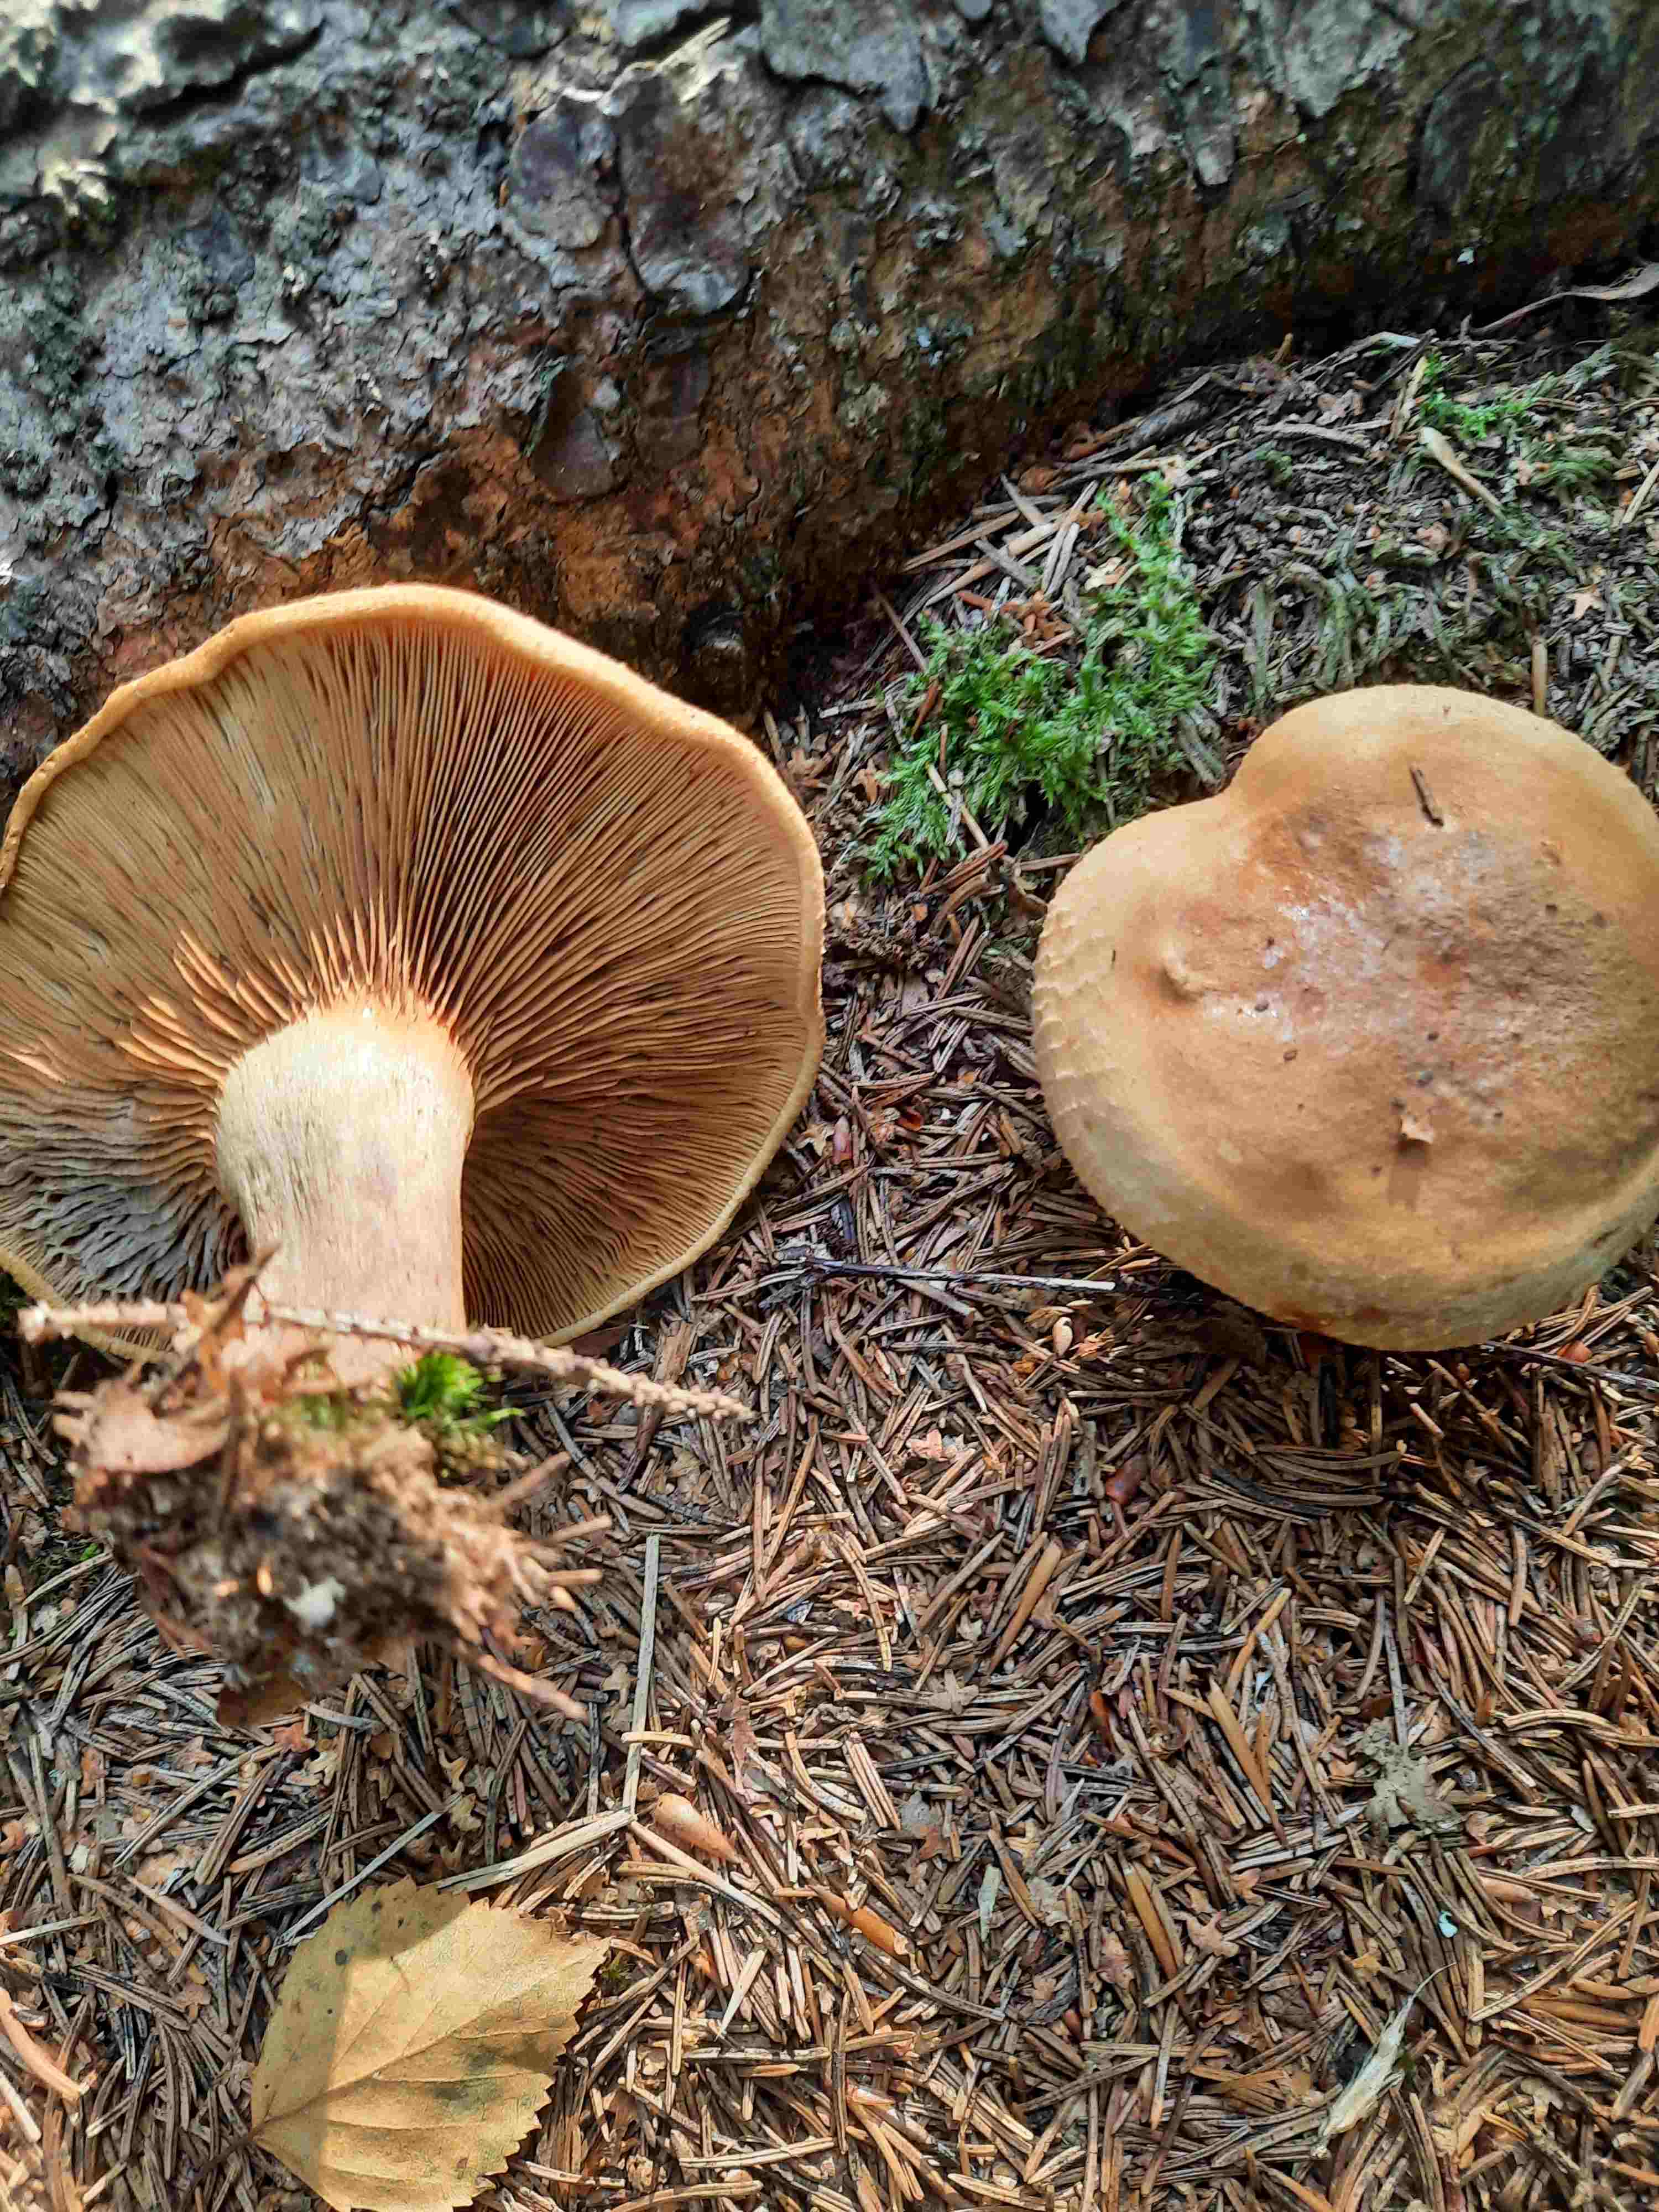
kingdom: Fungi
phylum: Basidiomycota
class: Agaricomycetes
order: Boletales
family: Paxillaceae
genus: Paxillus
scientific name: Paxillus
